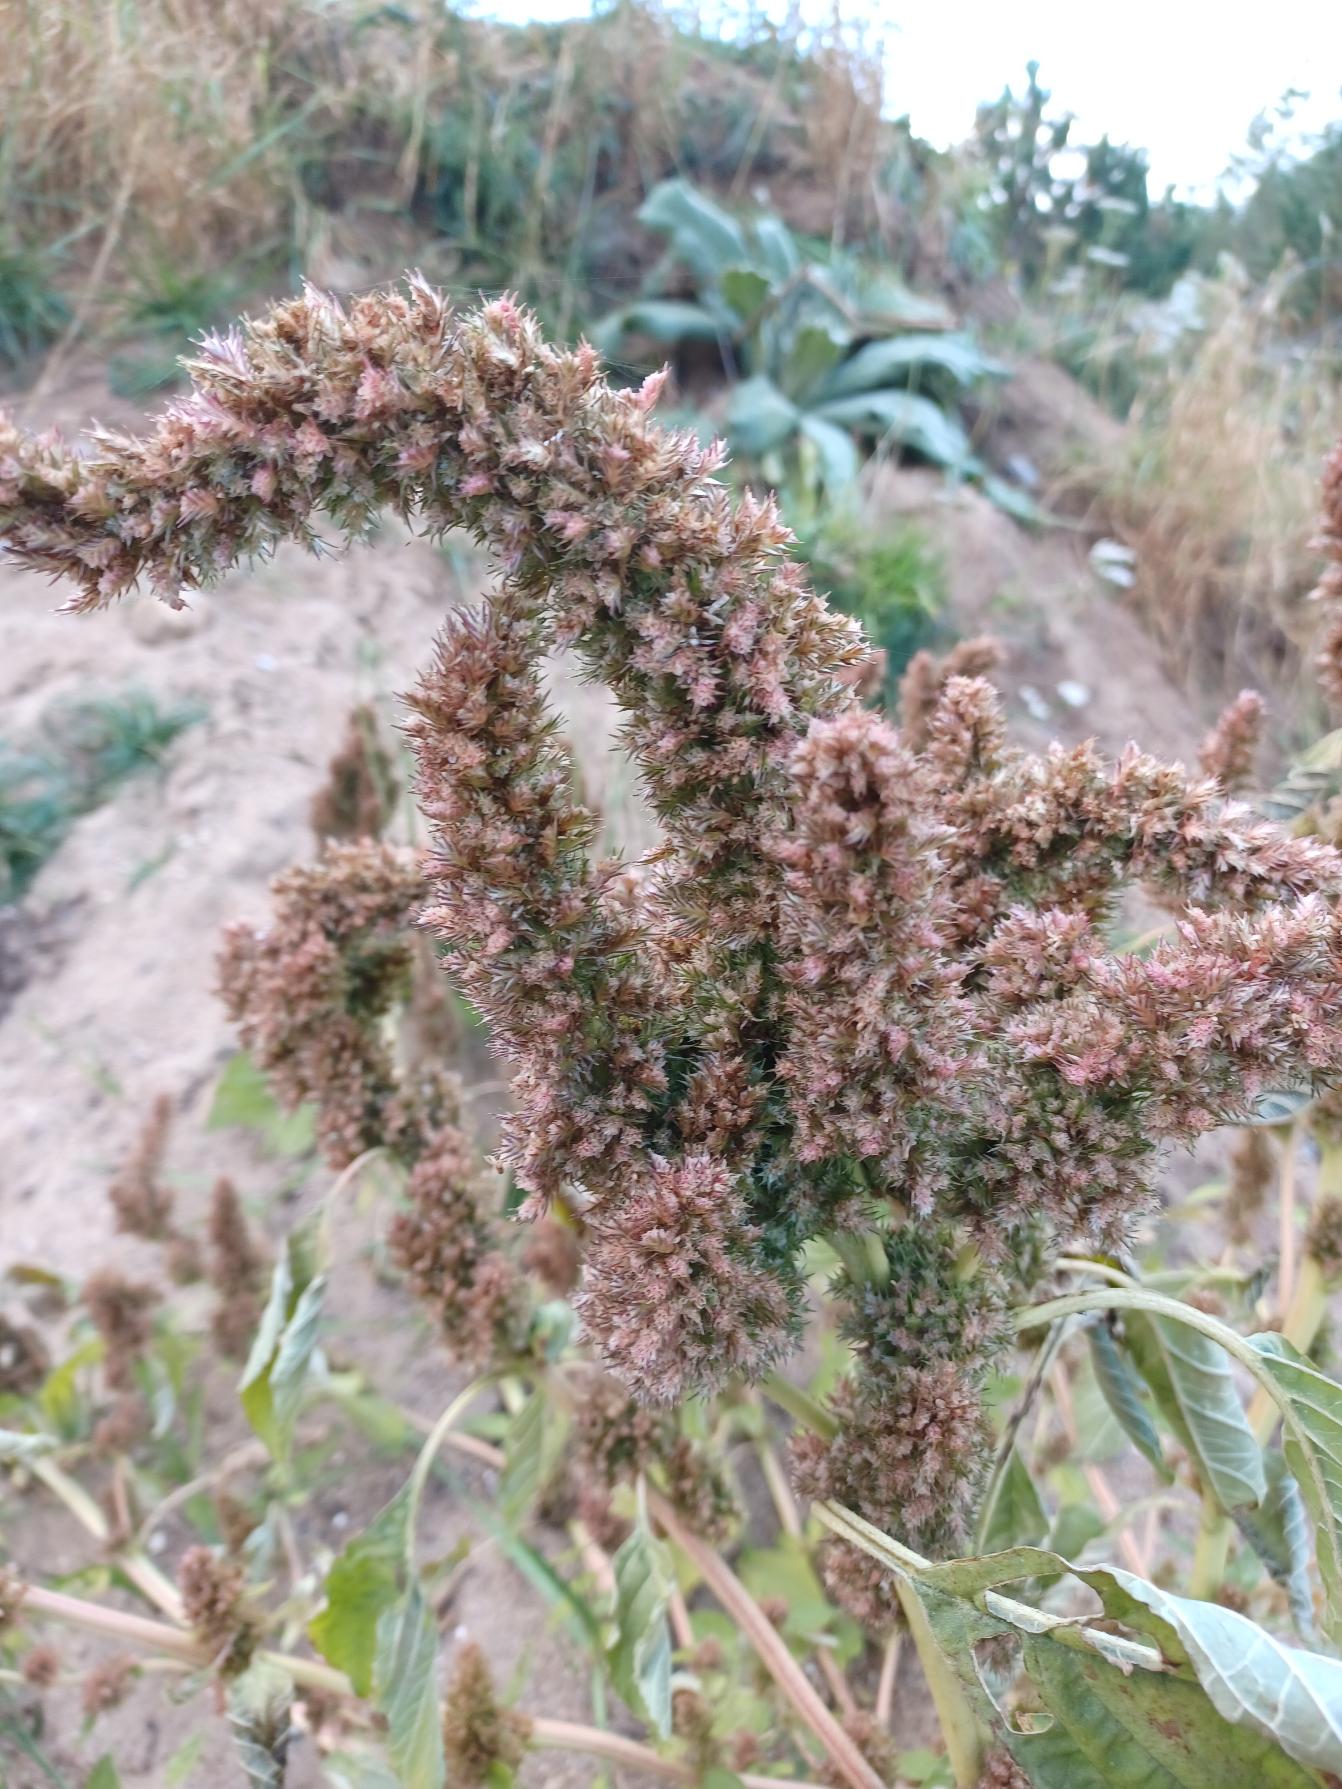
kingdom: Plantae
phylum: Tracheophyta
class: Magnoliopsida
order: Caryophyllales
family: Amaranthaceae
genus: Amaranthus
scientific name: Amaranthus retroflexus
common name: Opret amarant
